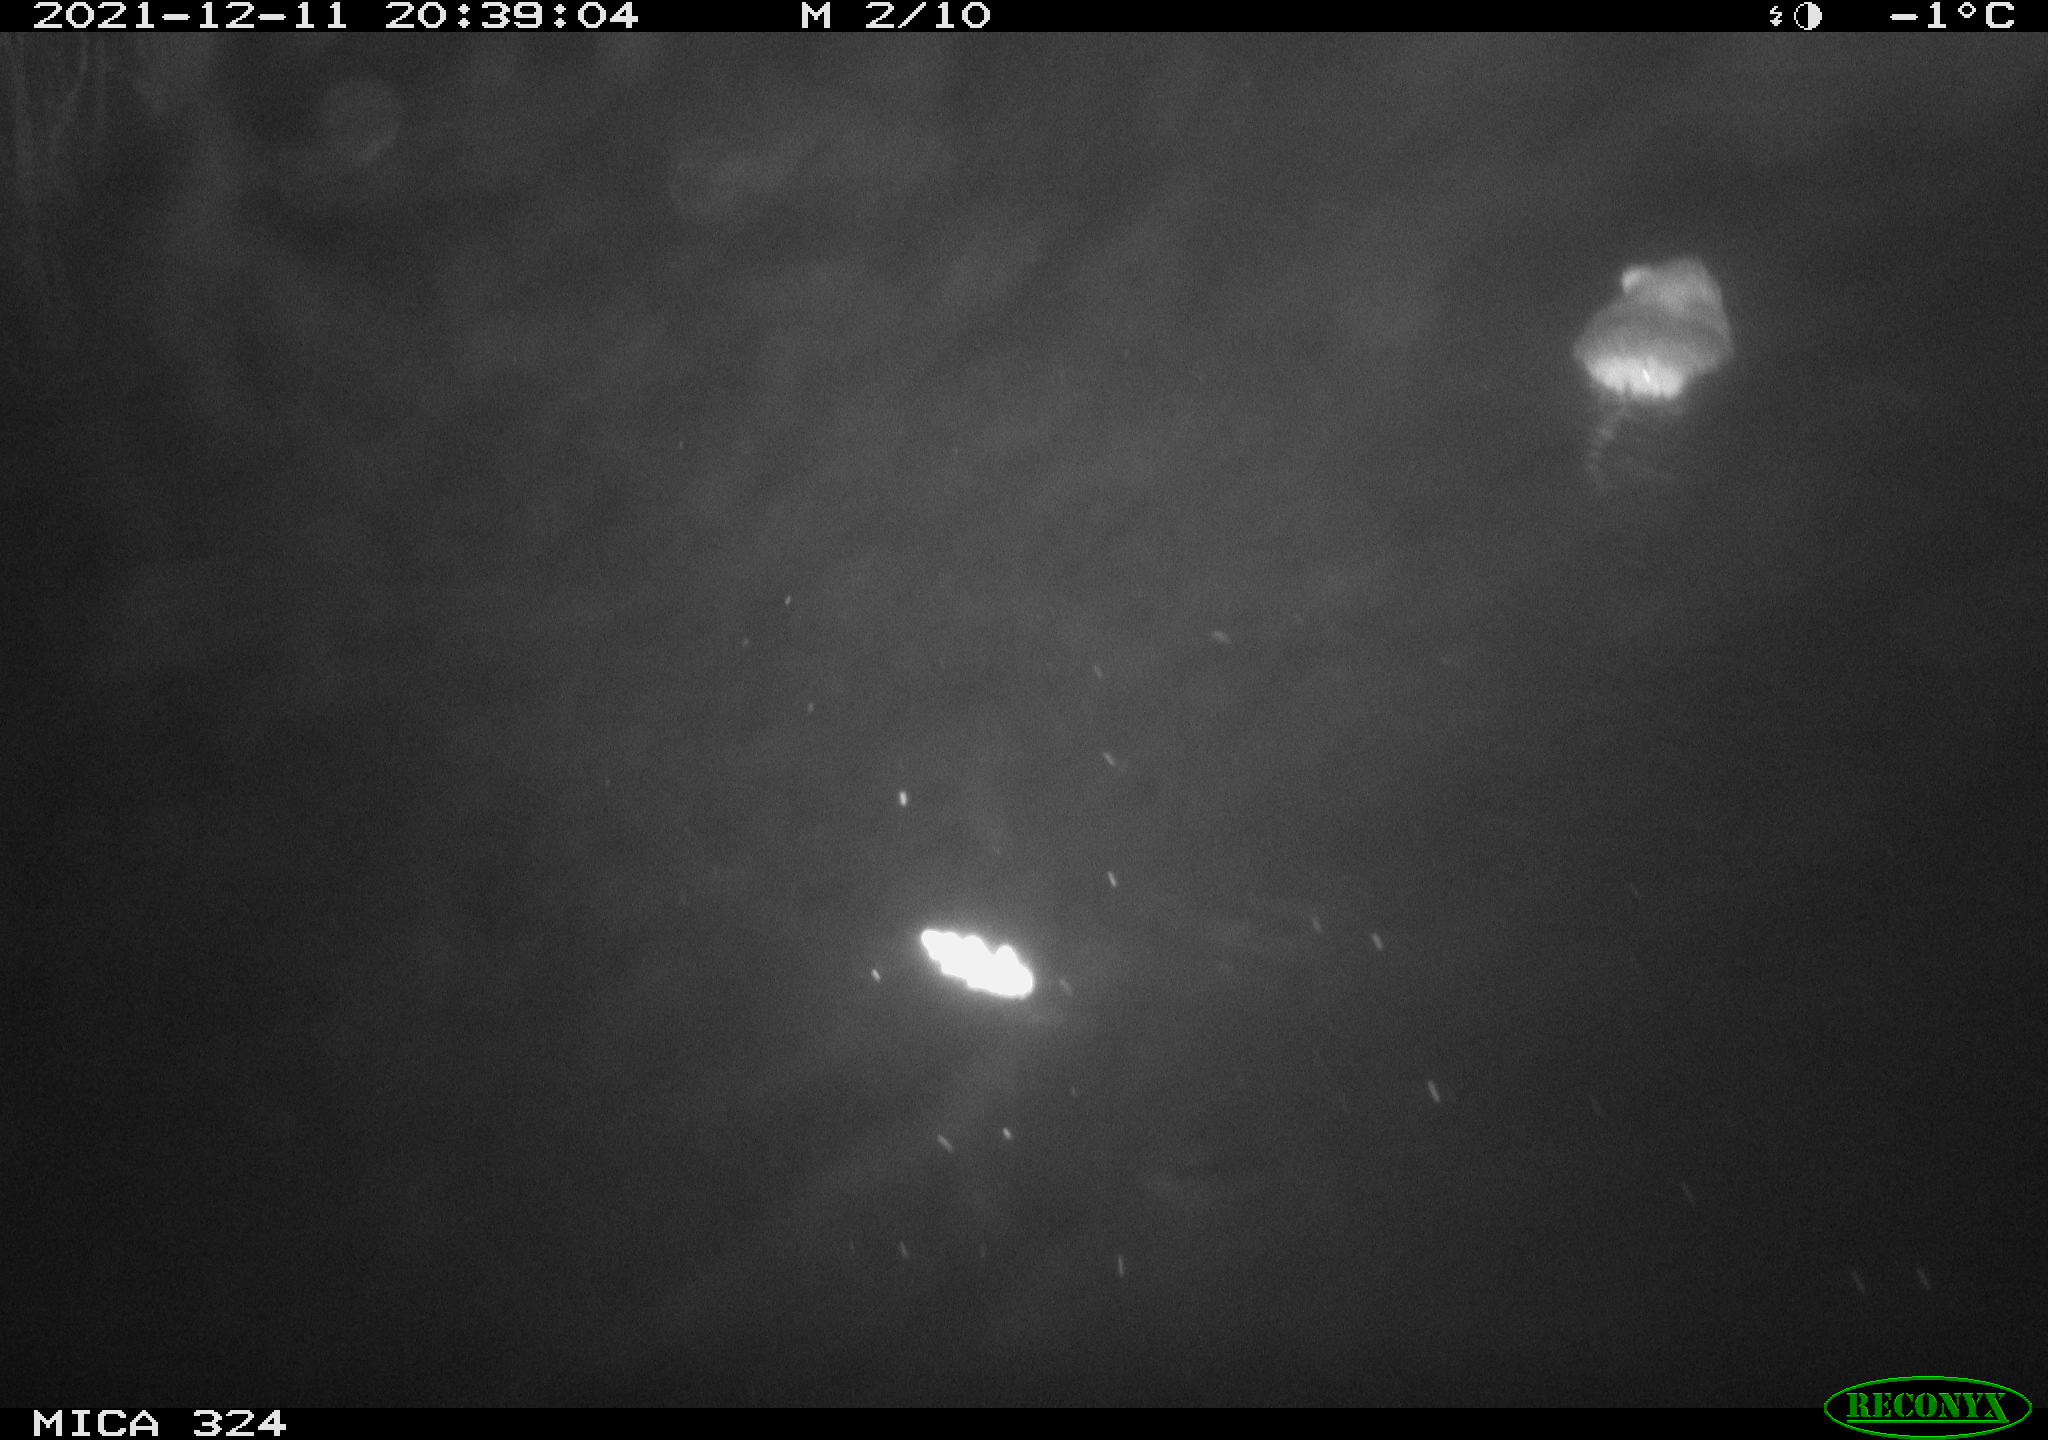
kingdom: Animalia
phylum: Chordata
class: Mammalia
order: Rodentia
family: Cricetidae
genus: Ondatra
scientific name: Ondatra zibethicus
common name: Muskrat
